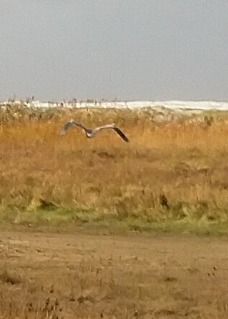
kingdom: Animalia
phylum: Chordata
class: Aves
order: Pelecaniformes
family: Ardeidae
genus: Ardea
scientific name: Ardea cinerea
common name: Fiskehejre
